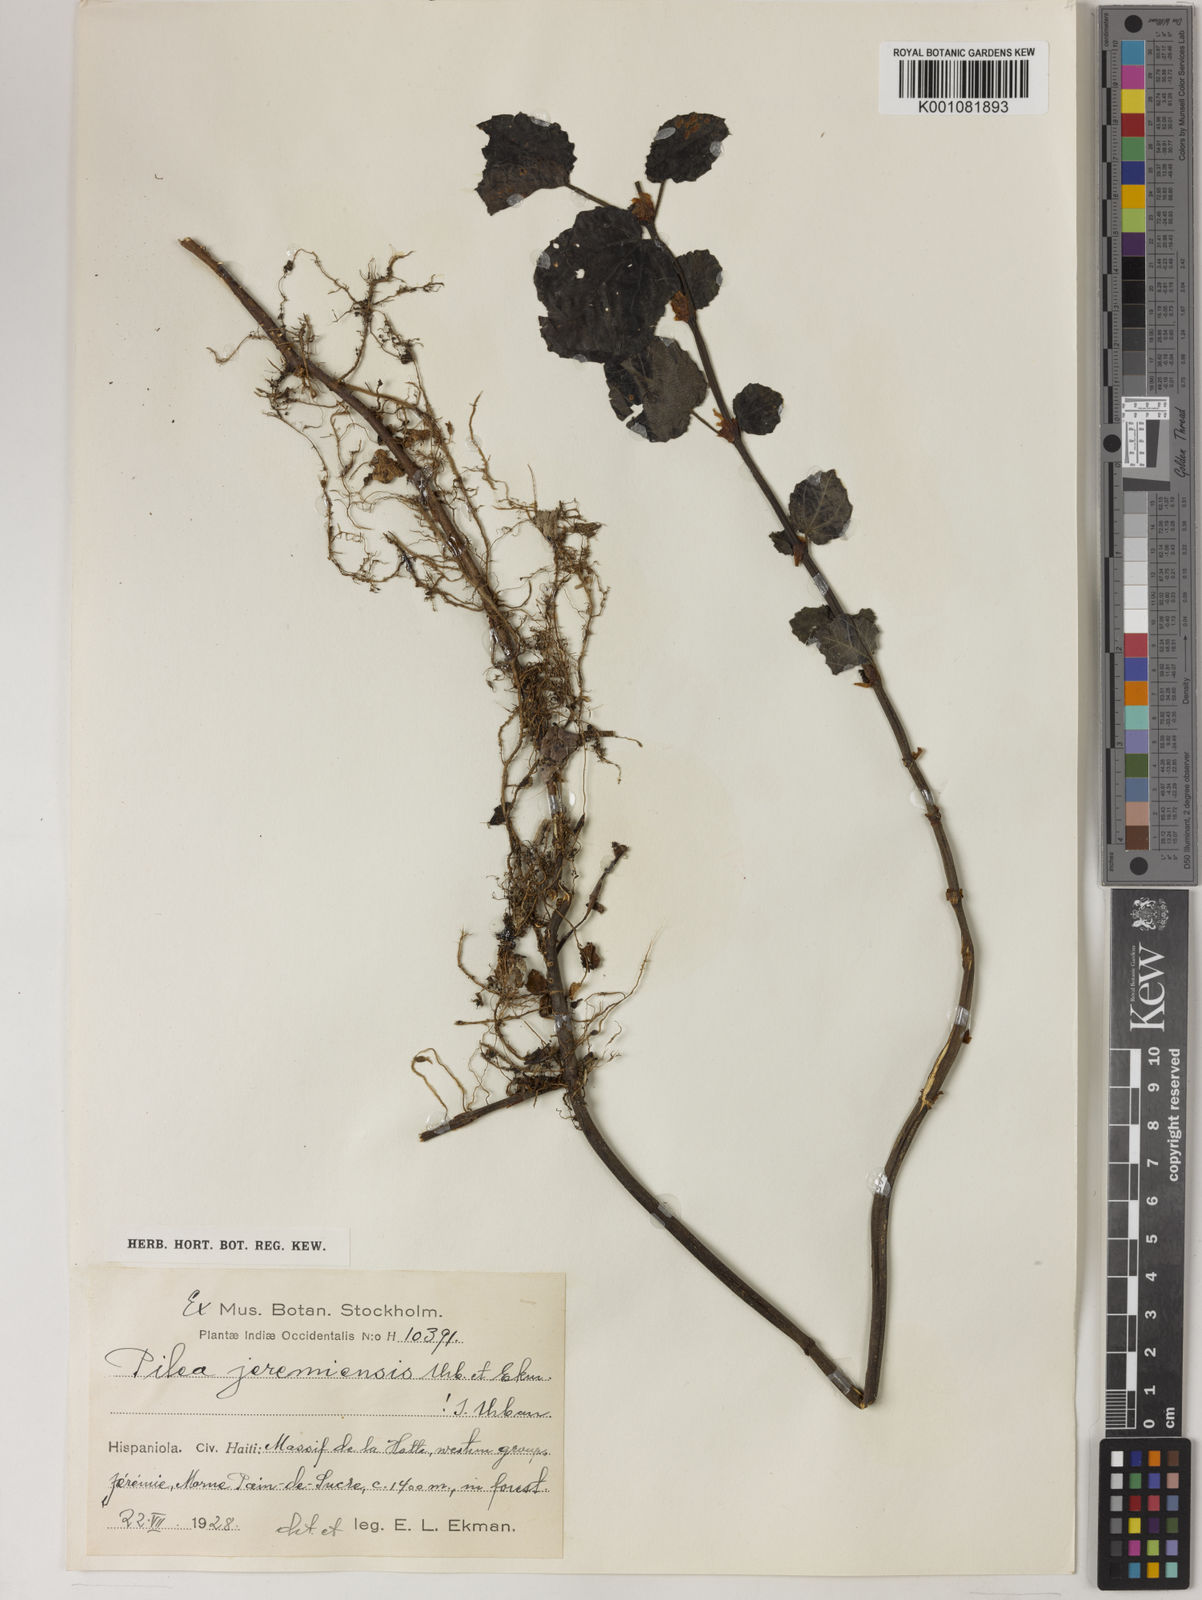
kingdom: Plantae
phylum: Tracheophyta
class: Magnoliopsida
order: Rosales
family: Urticaceae
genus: Pilea
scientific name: Pilea jeremiensis
